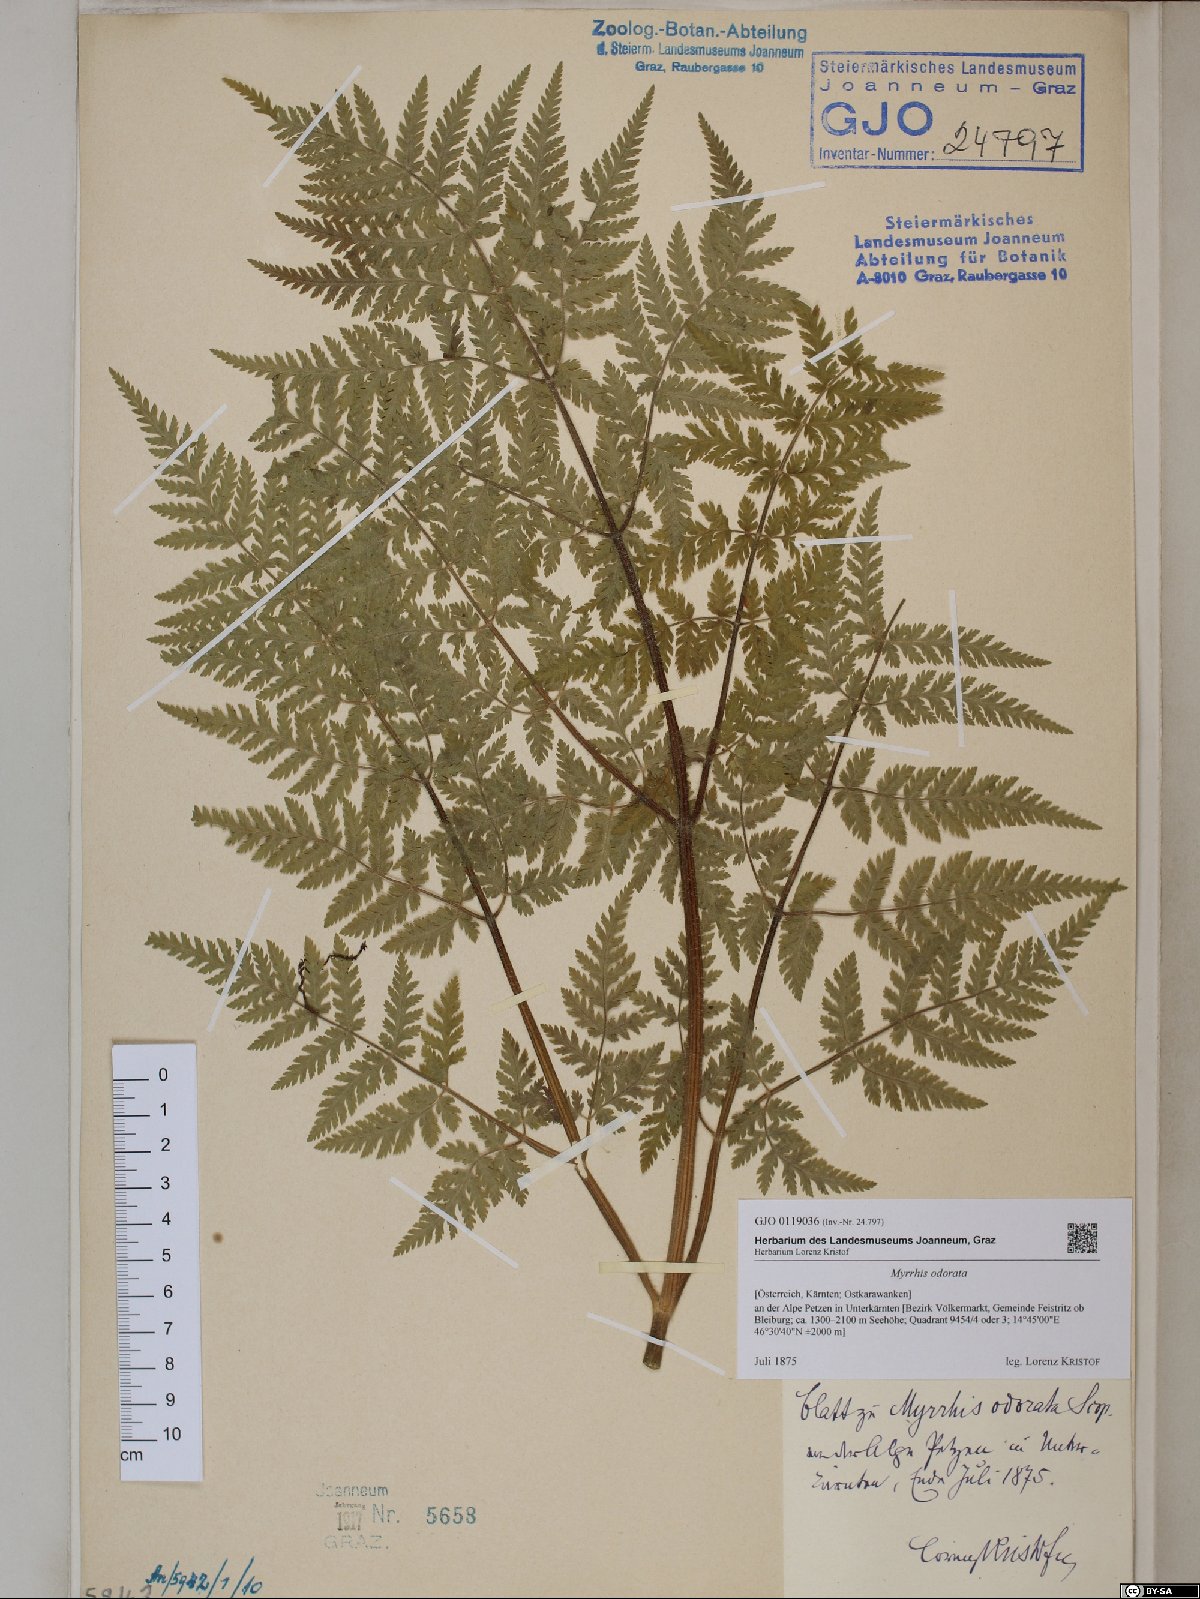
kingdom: Plantae
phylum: Tracheophyta
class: Magnoliopsida
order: Apiales
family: Apiaceae
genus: Myrrhis
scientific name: Myrrhis odorata
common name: Sweet cicely
